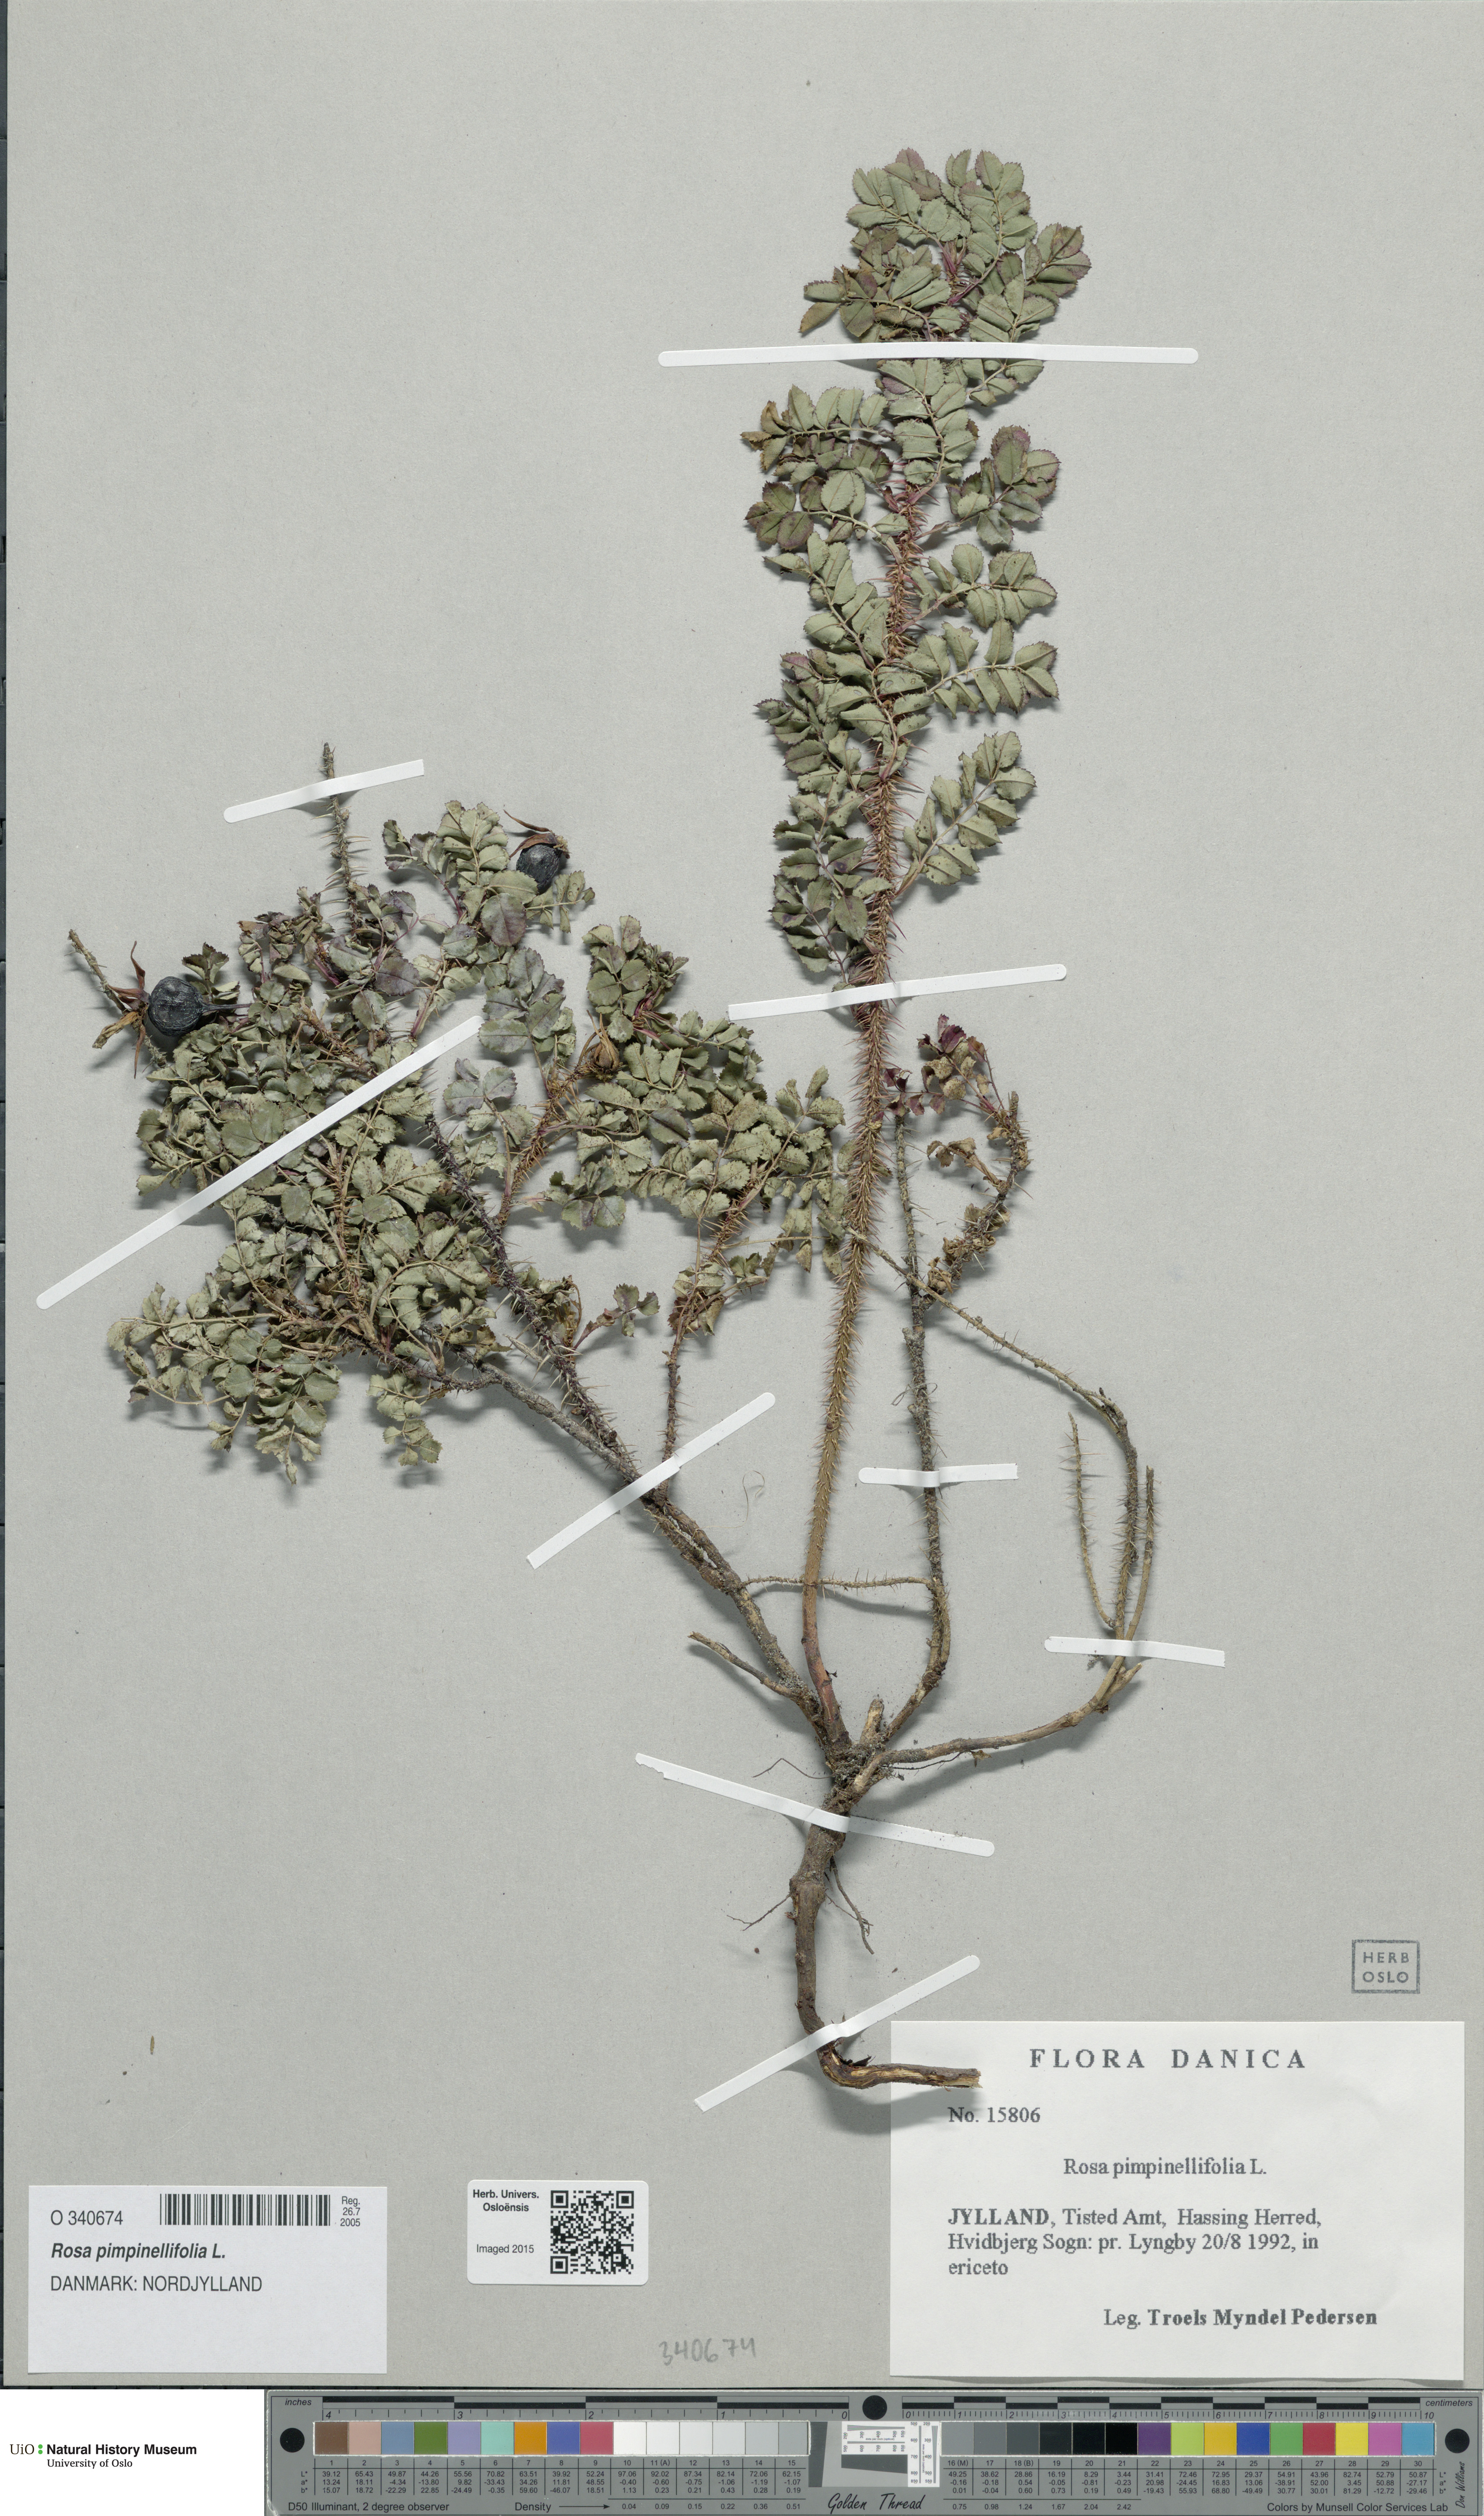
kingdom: Plantae
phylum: Tracheophyta
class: Magnoliopsida
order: Rosales
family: Rosaceae
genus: Rosa
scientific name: Rosa spinosissima
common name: Burnet rose
